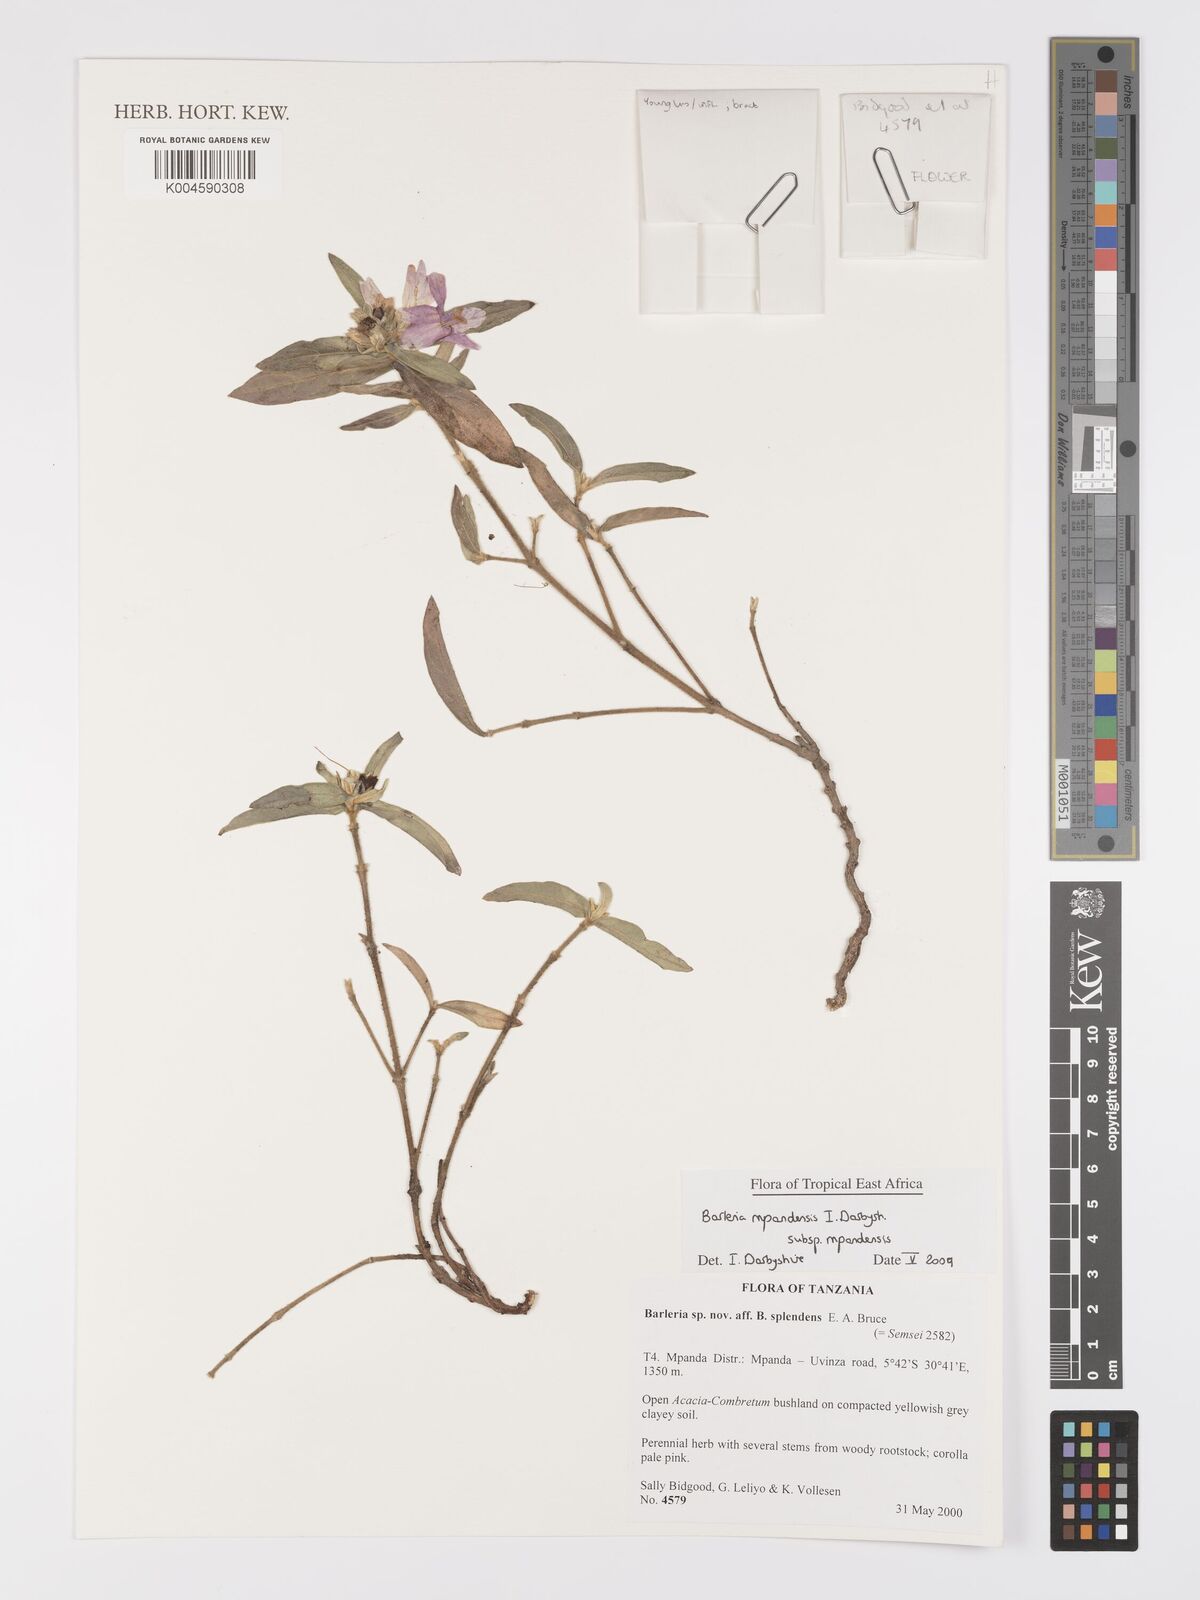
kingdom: Plantae
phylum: Tracheophyta
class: Magnoliopsida
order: Lamiales
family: Acanthaceae
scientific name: Acanthaceae
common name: Acanthaceae
